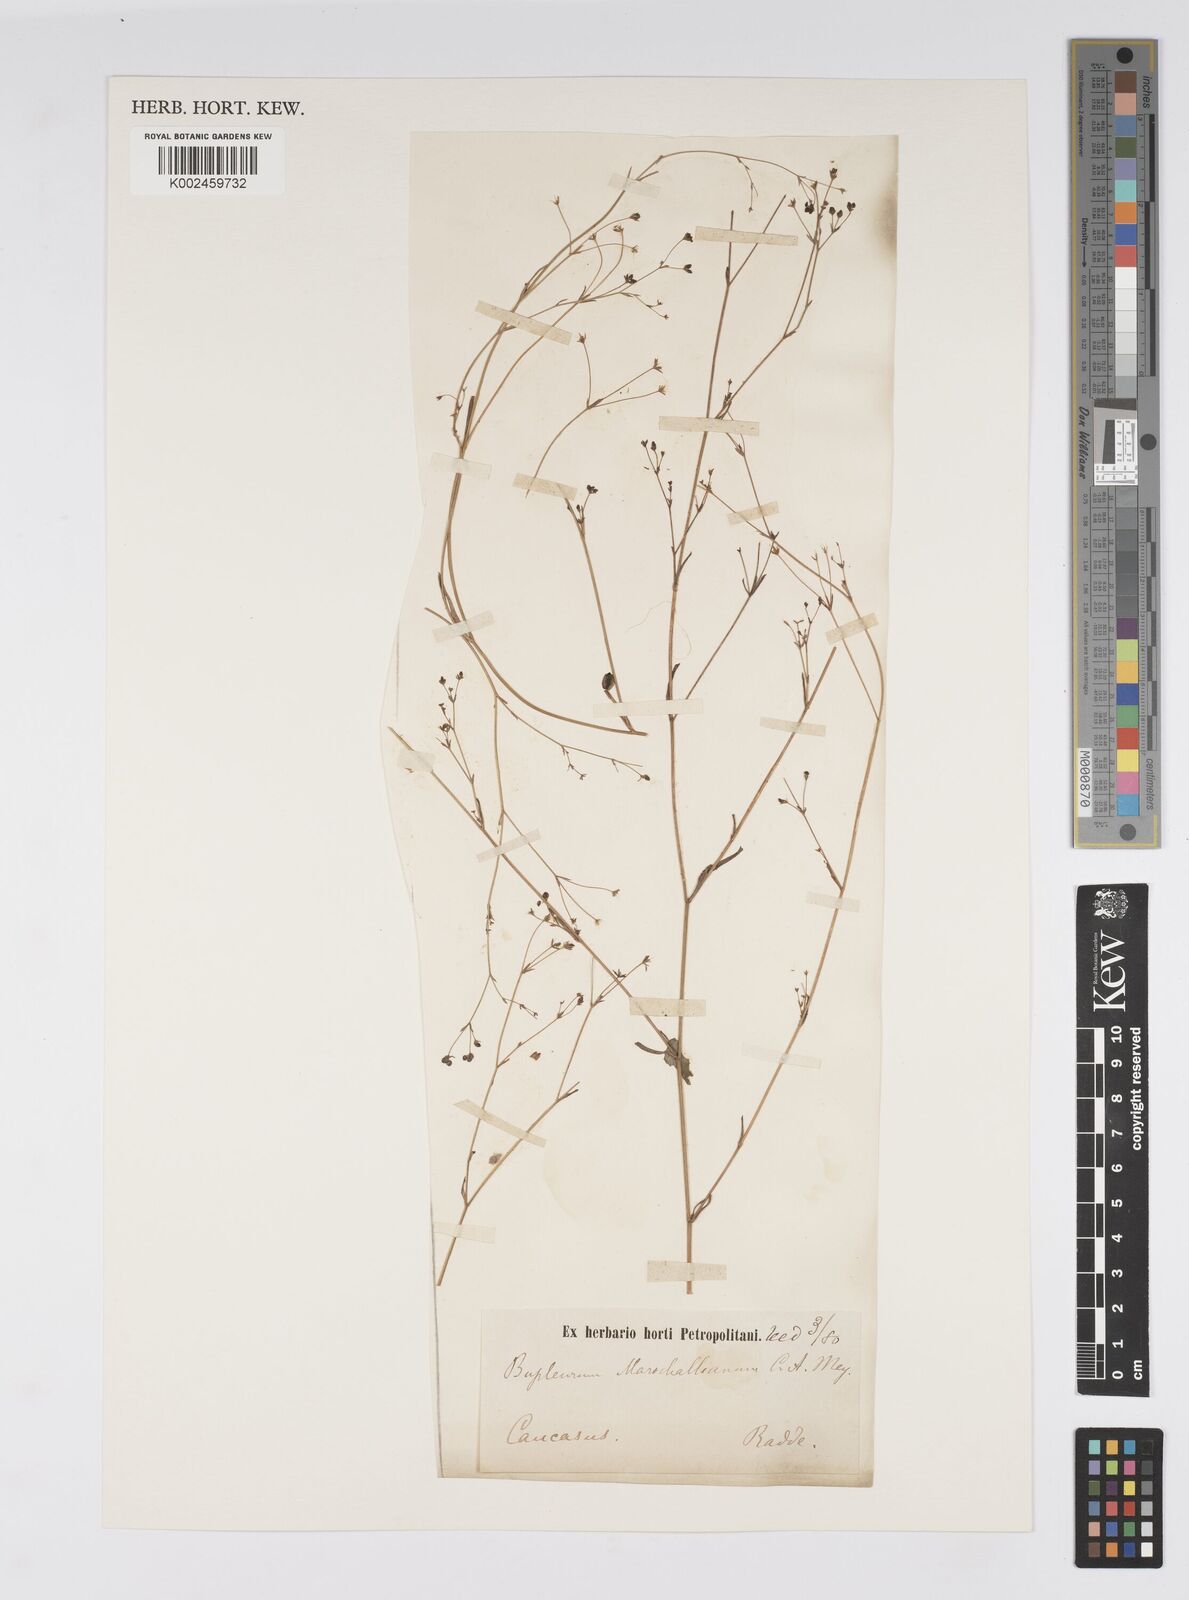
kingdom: Plantae
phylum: Tracheophyta
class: Magnoliopsida
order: Apiales
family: Apiaceae
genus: Bupleurum
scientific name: Bupleurum tenuissimum
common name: Slender hare's-ear
